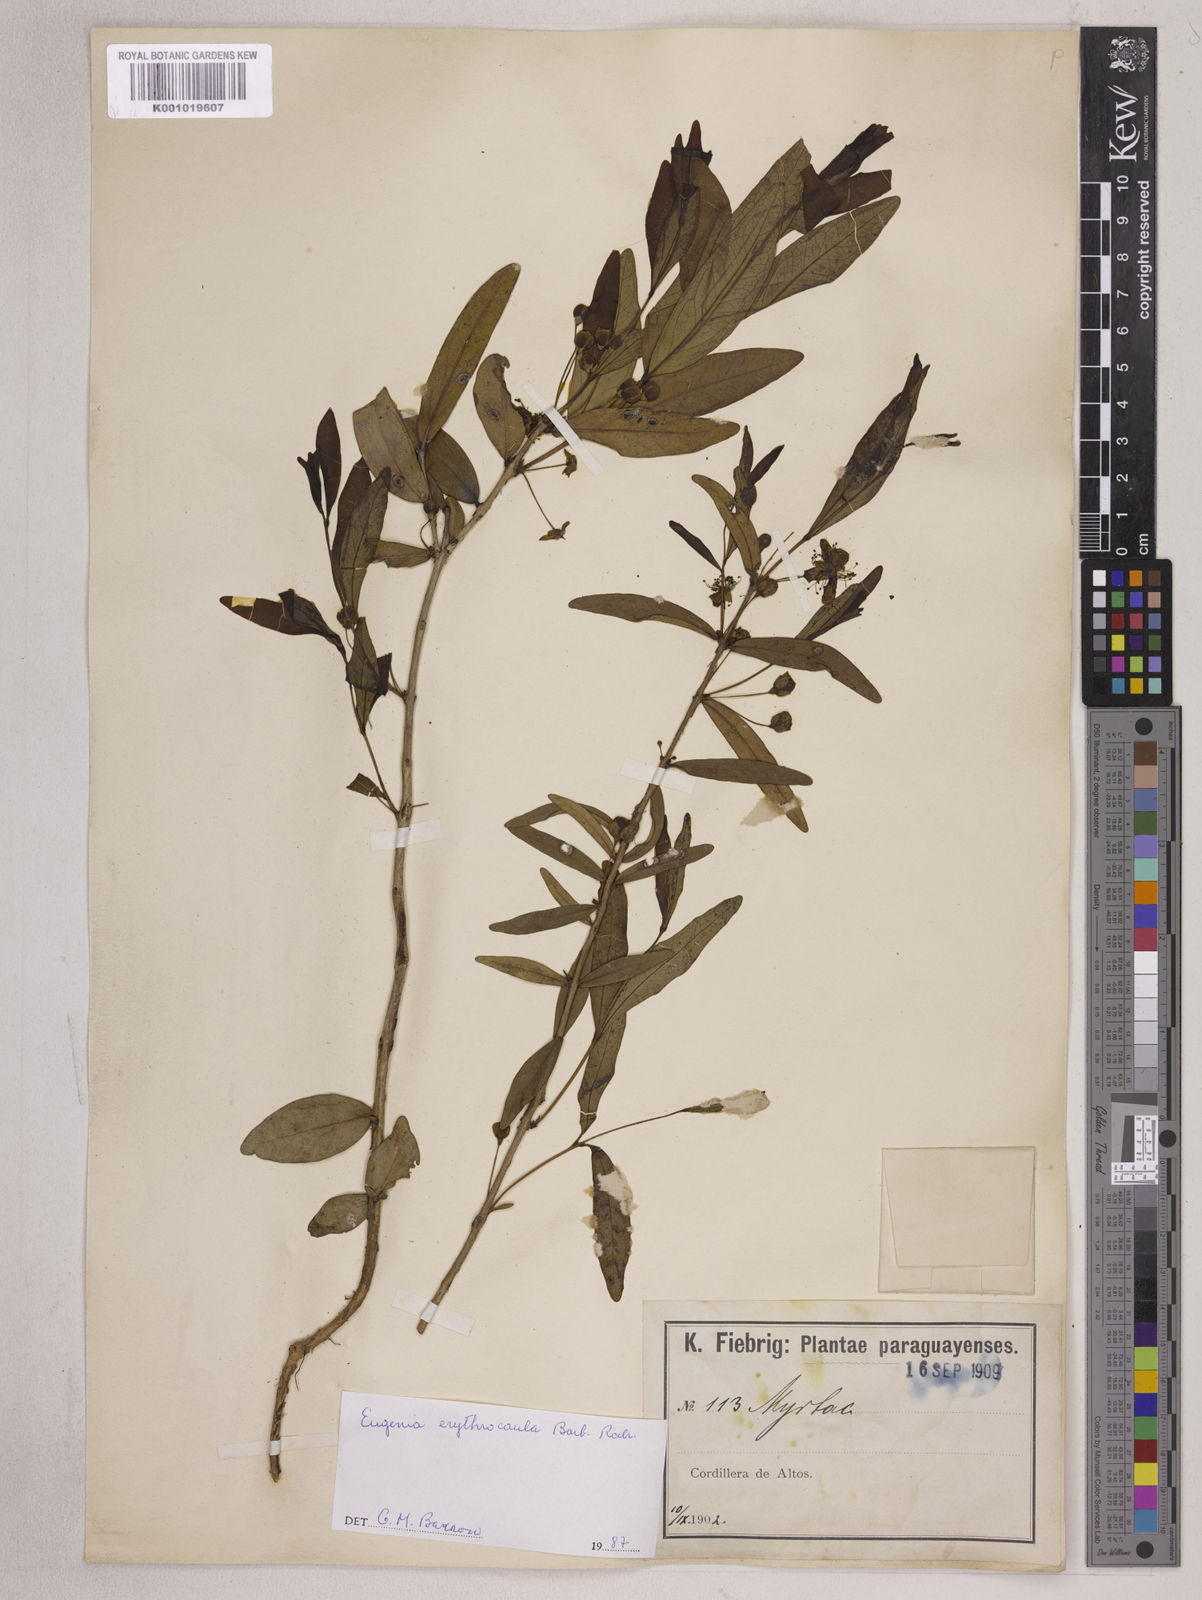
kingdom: Plantae
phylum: Tracheophyta
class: Magnoliopsida
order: Myrtales
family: Myrtaceae
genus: Eugenia
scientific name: Eugenia punicifolia
